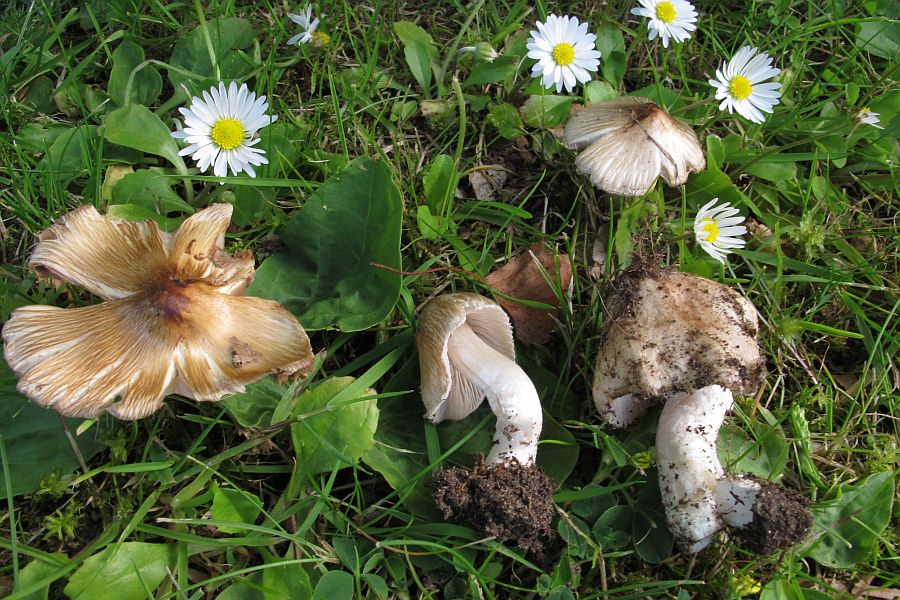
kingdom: Fungi
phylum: Basidiomycota
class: Agaricomycetes
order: Agaricales
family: Inocybaceae
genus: Pseudosperma
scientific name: Pseudosperma obsoletum
